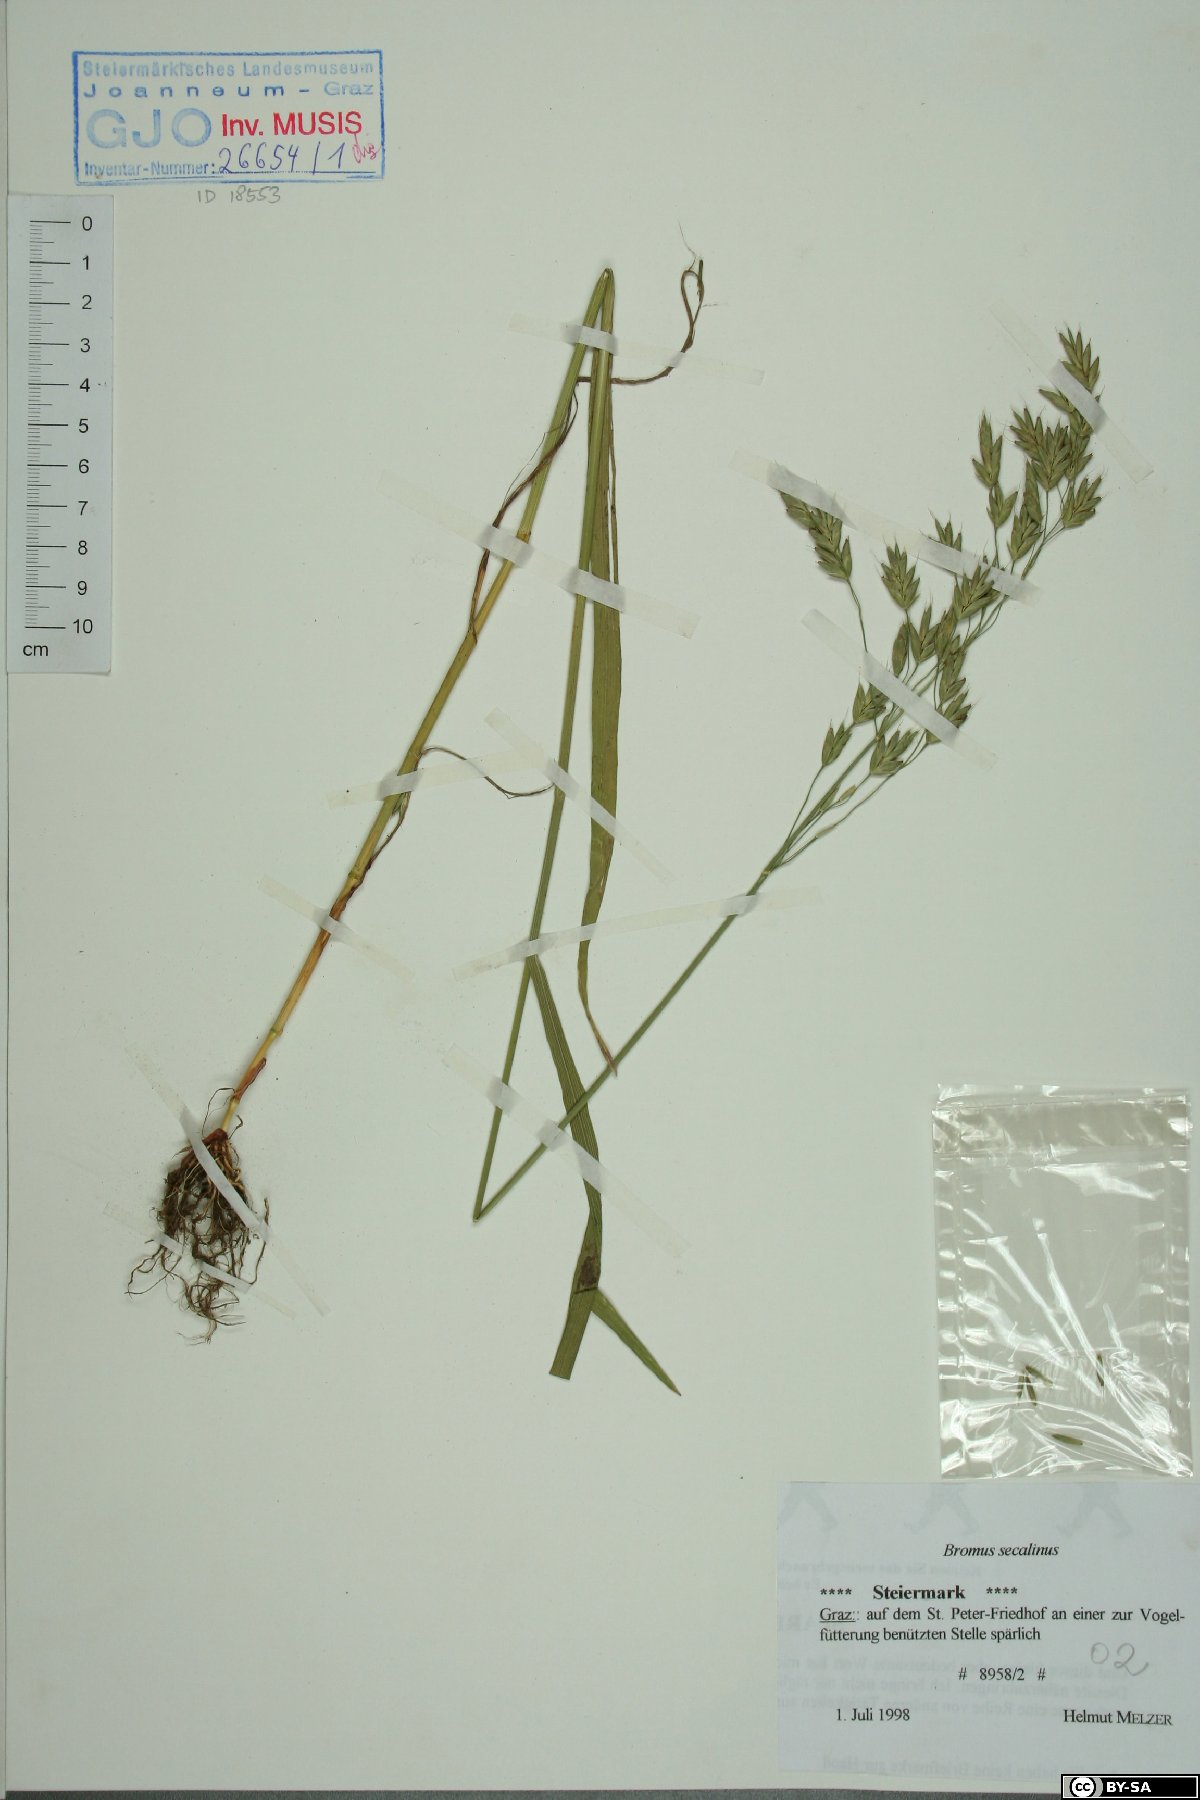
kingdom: Plantae
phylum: Tracheophyta
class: Liliopsida
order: Poales
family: Poaceae
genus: Bromus
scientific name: Bromus secalinus
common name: Rye brome
